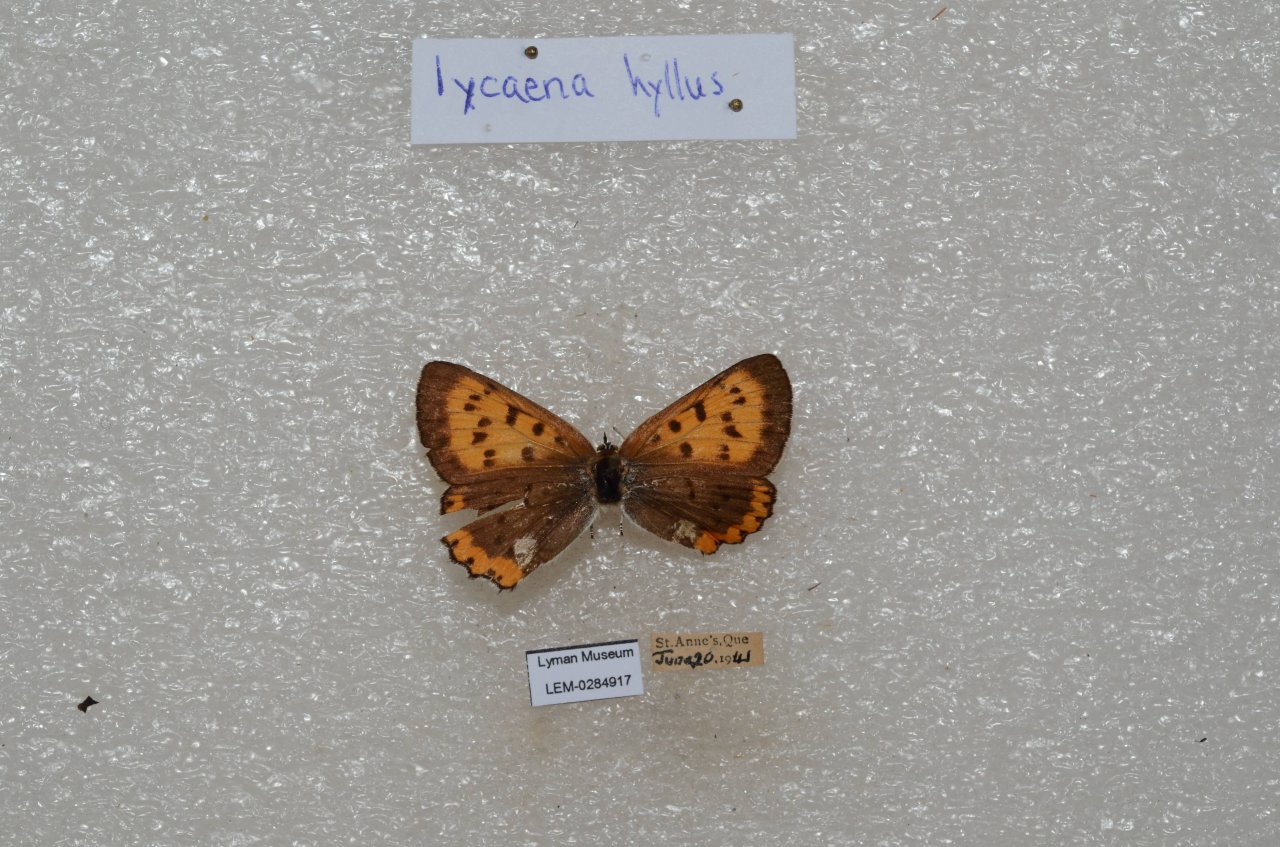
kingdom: Animalia
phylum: Arthropoda
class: Insecta
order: Lepidoptera
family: Sesiidae
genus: Sesia
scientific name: Sesia Lycaena hyllus
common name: Bronze Copper
